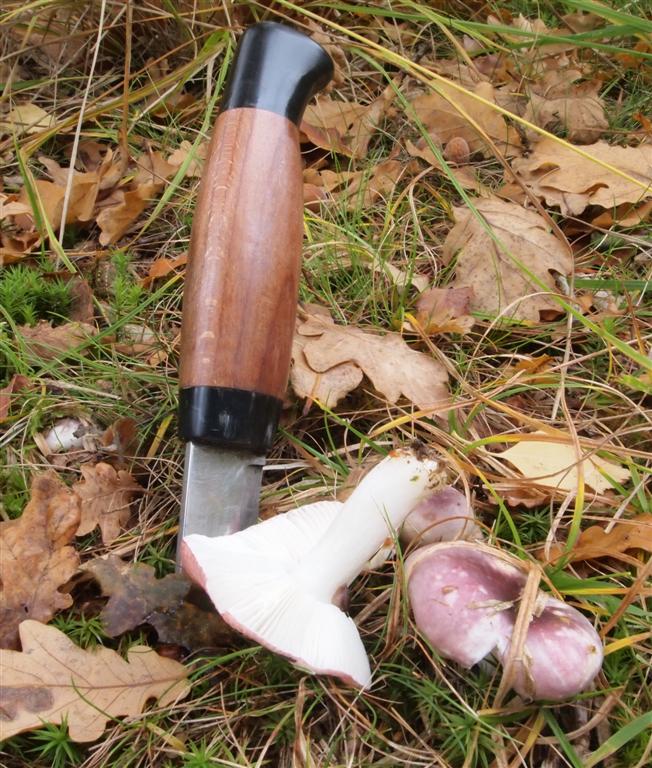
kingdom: Fungi
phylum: Basidiomycota
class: Agaricomycetes
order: Russulales
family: Russulaceae
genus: Russula
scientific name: Russula fragilis
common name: savbladet skørhat
